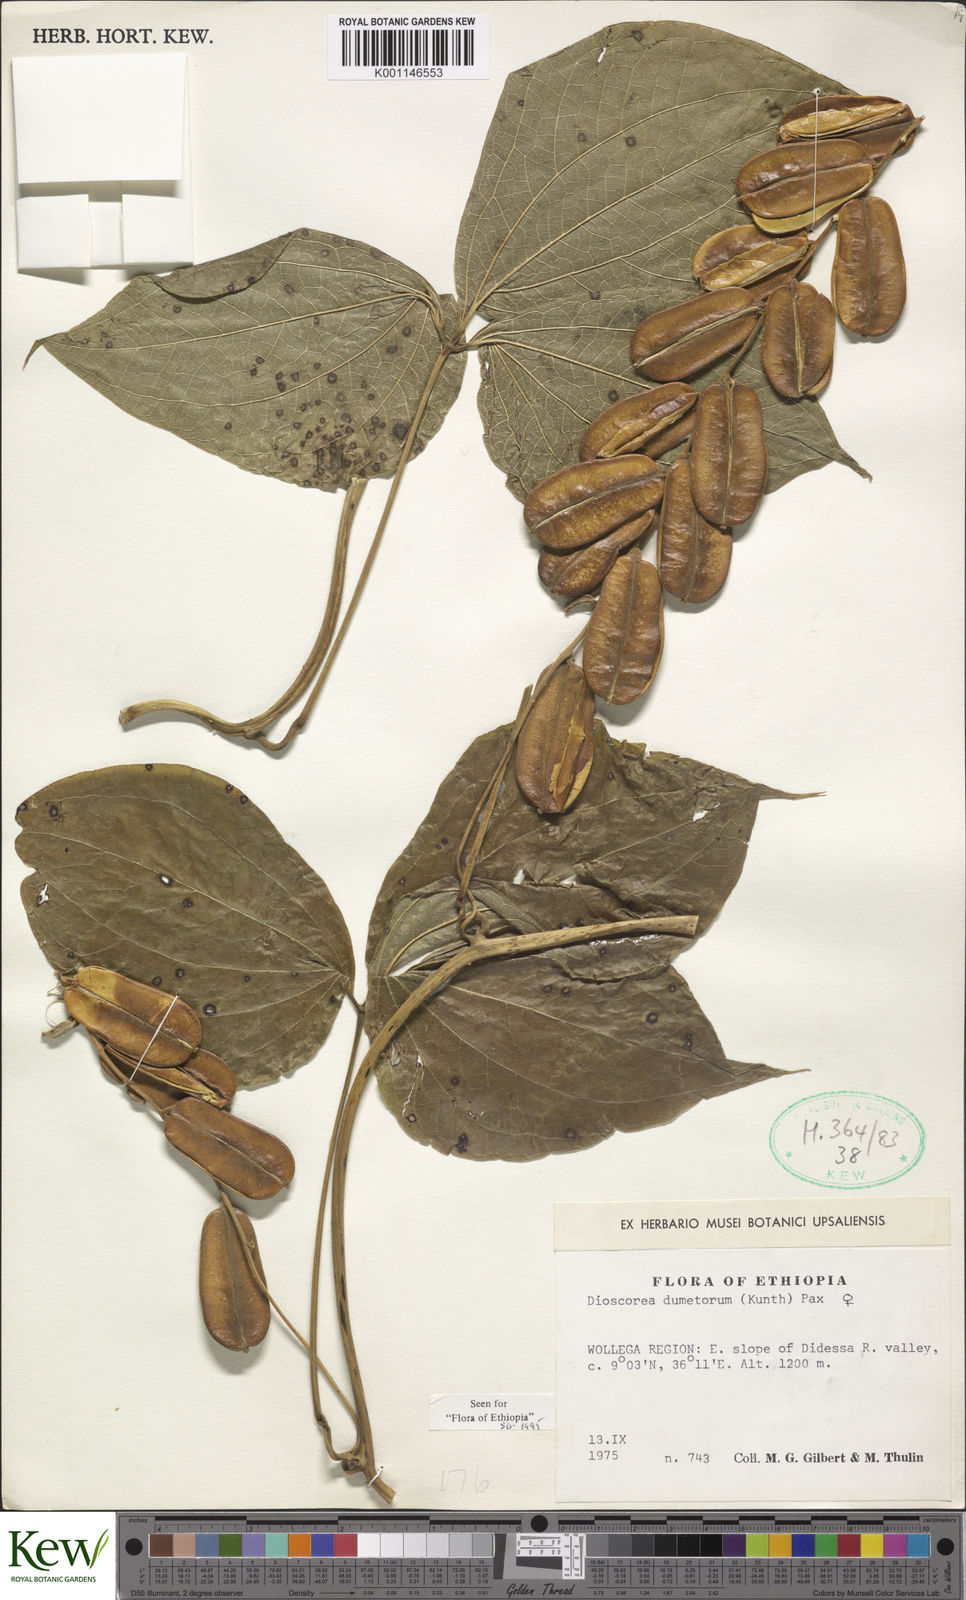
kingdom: Plantae
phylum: Tracheophyta
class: Liliopsida
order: Dioscoreales
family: Dioscoreaceae
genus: Dioscorea
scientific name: Dioscorea dumetorum
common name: African bitter yam
